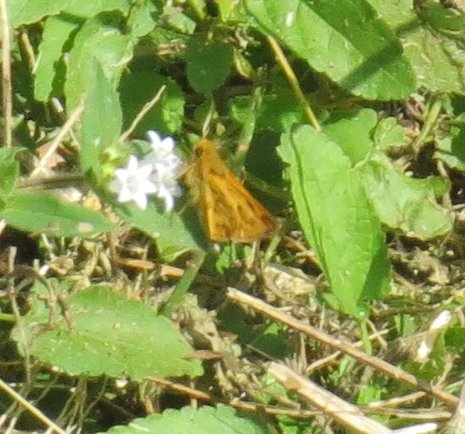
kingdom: Animalia
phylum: Arthropoda
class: Insecta
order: Lepidoptera
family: Hesperiidae
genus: Hylephila
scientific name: Hylephila phyleus
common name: Fiery Skipper
